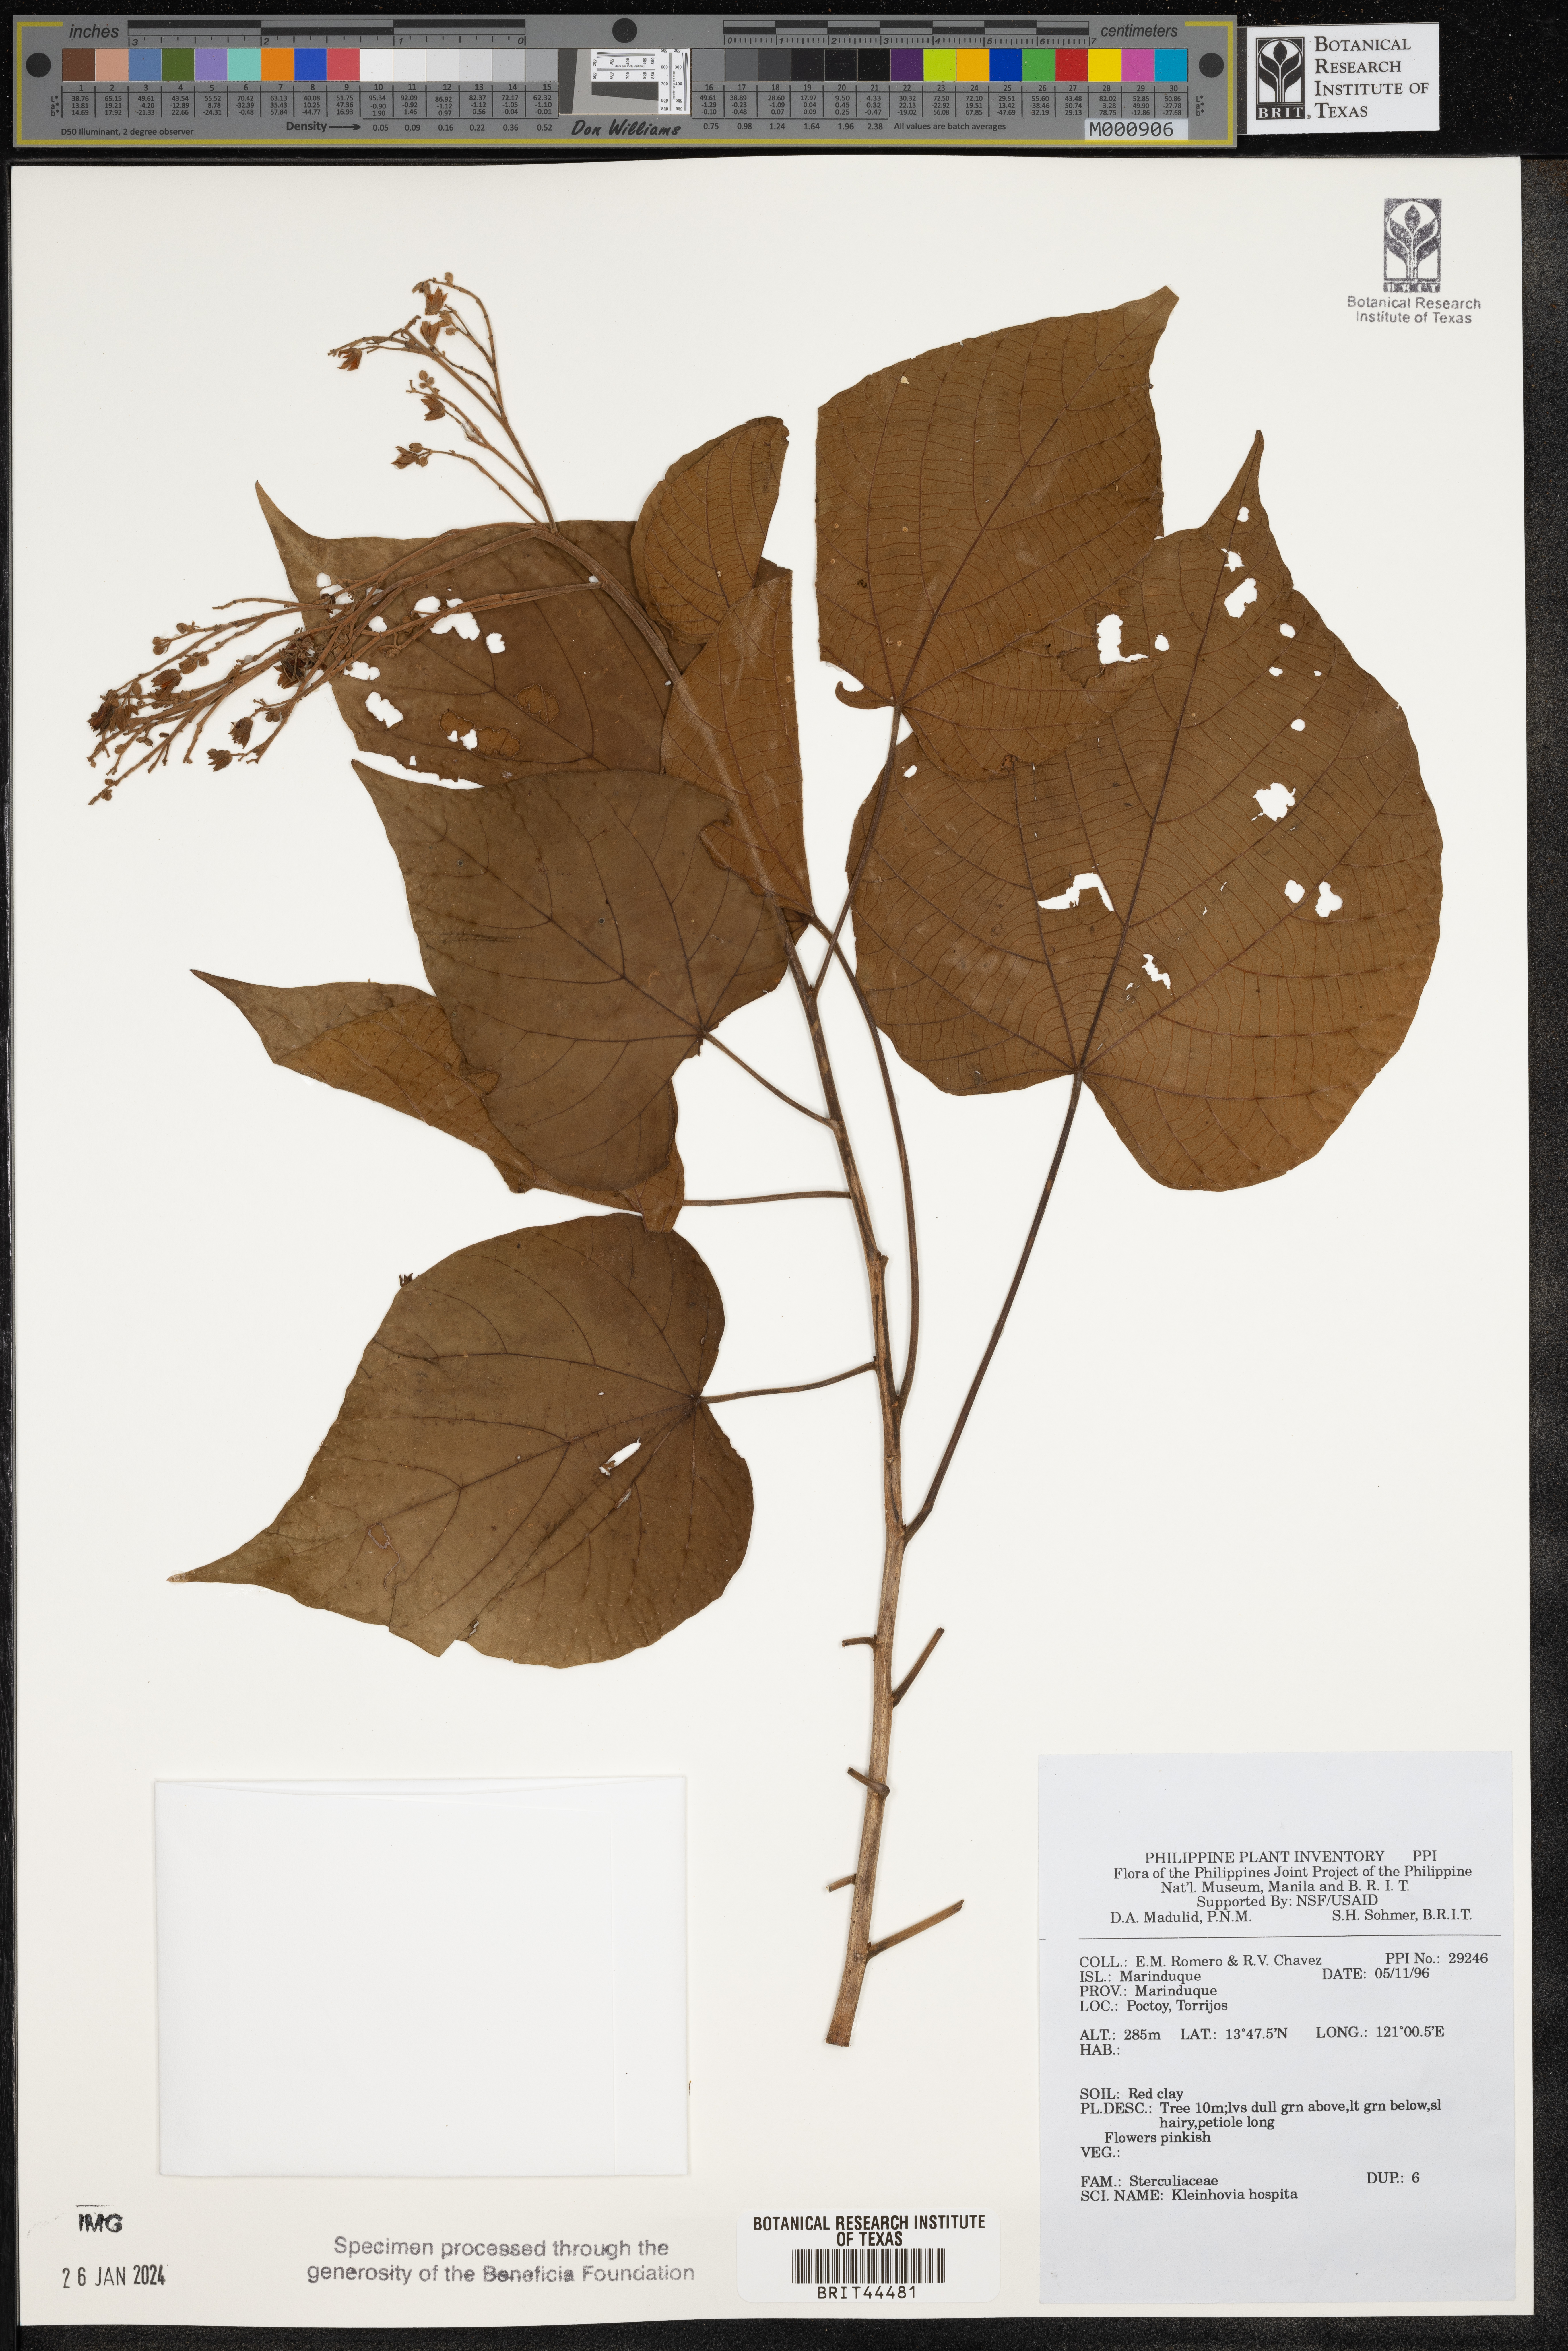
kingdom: Plantae
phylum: Tracheophyta
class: Magnoliopsida
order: Malvales
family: Malvaceae
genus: Kleinhovia
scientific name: Kleinhovia hospita
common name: Guest-tree
